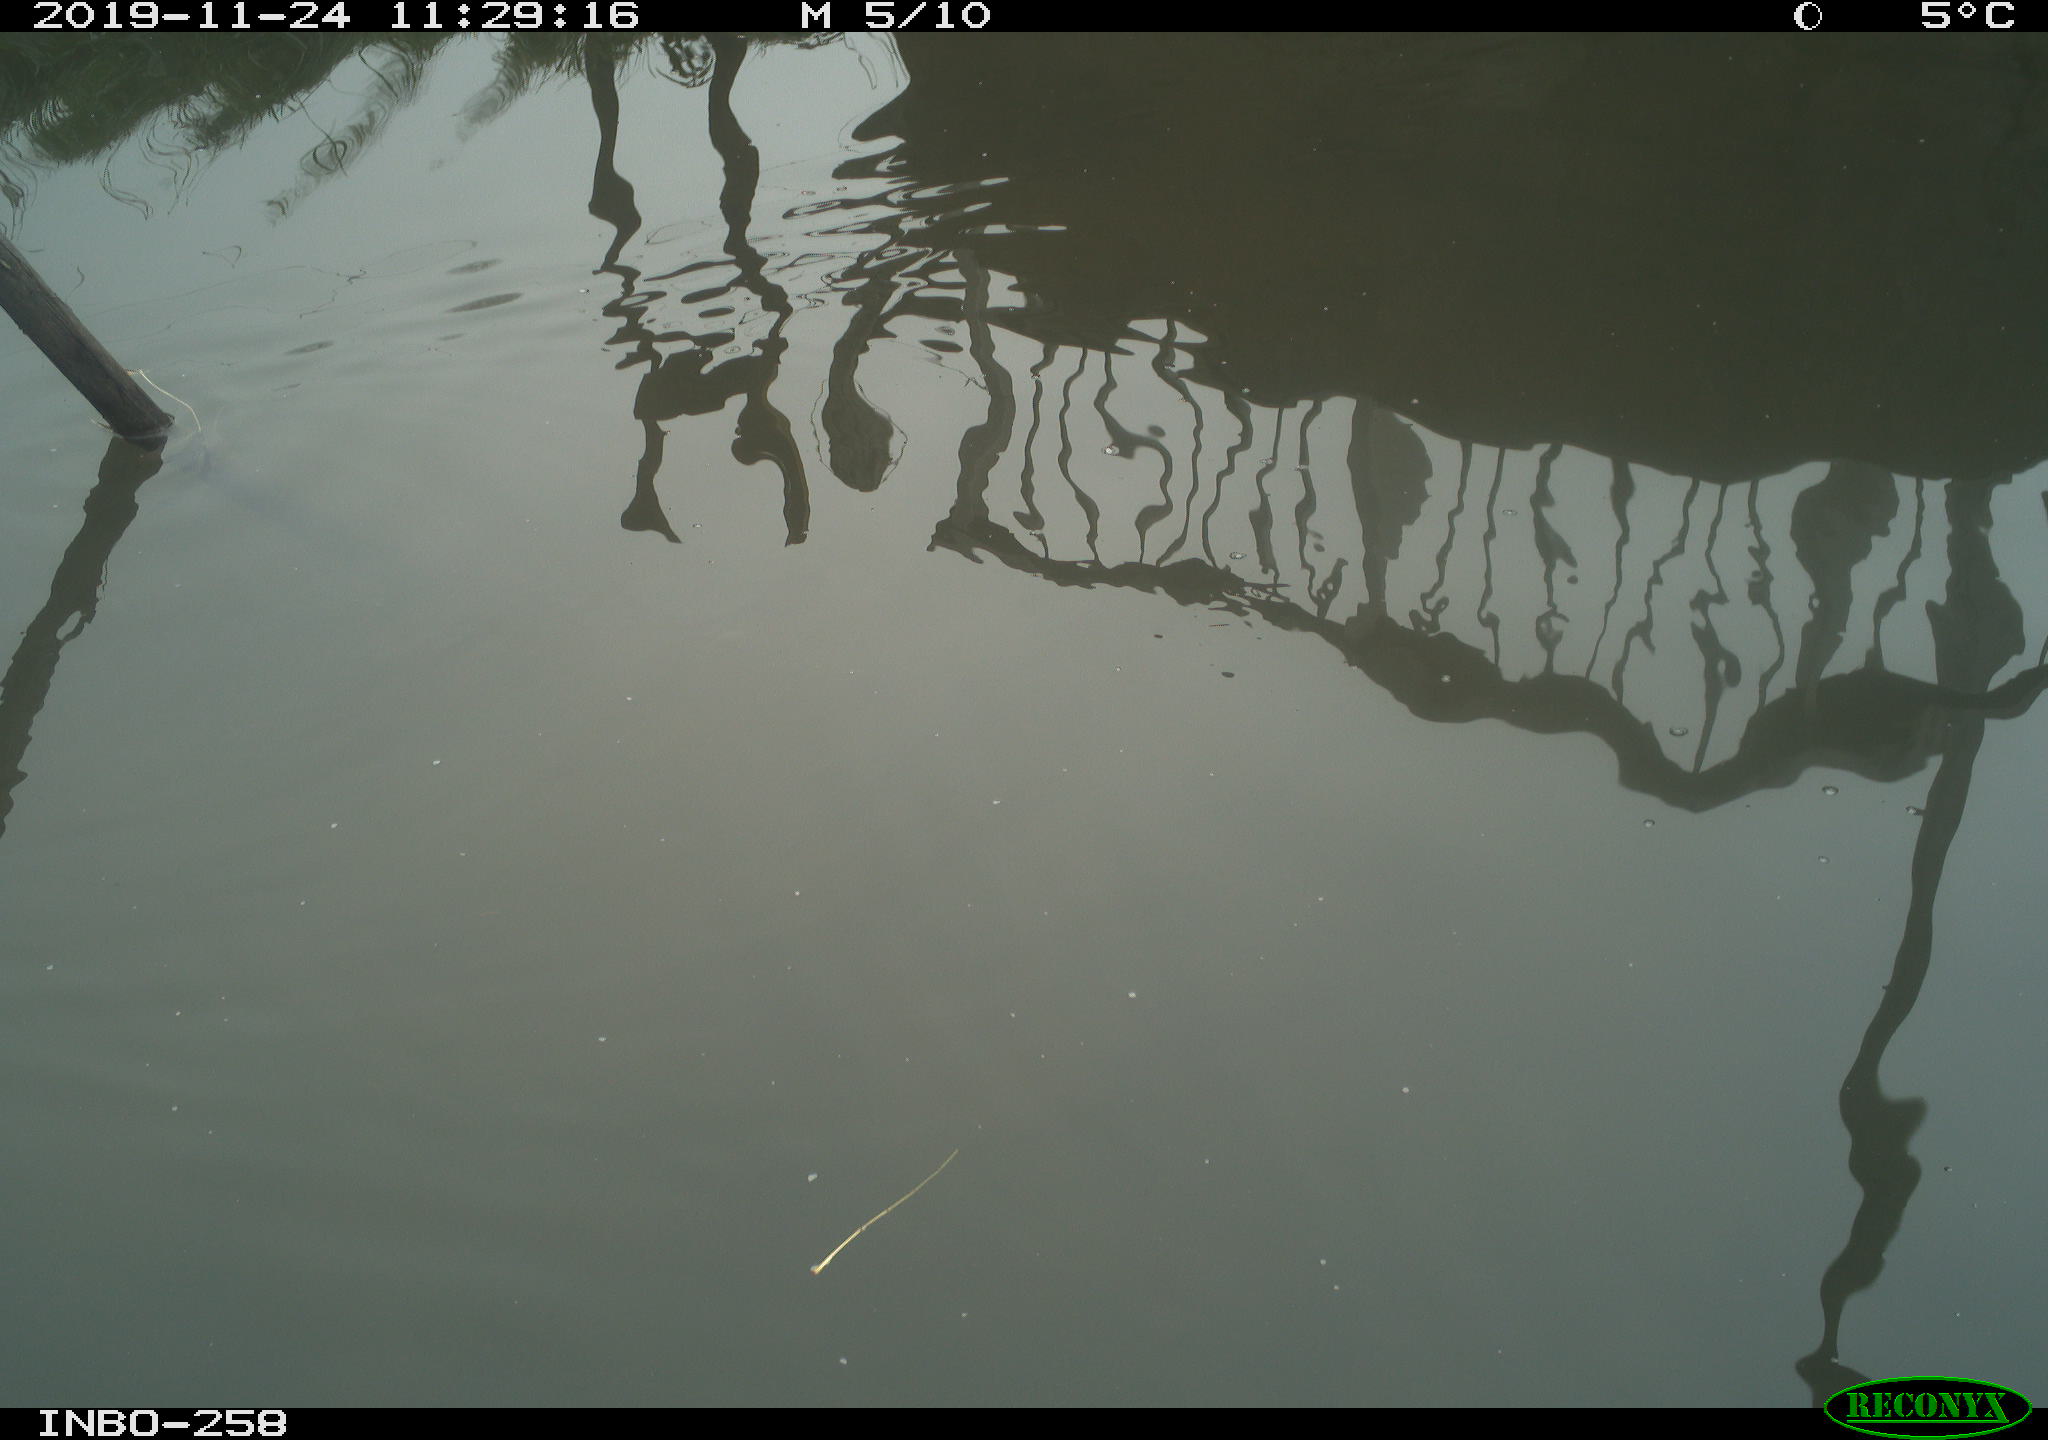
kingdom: Animalia
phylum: Chordata
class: Aves
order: Gruiformes
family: Rallidae
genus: Gallinula
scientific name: Gallinula chloropus
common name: Common moorhen
